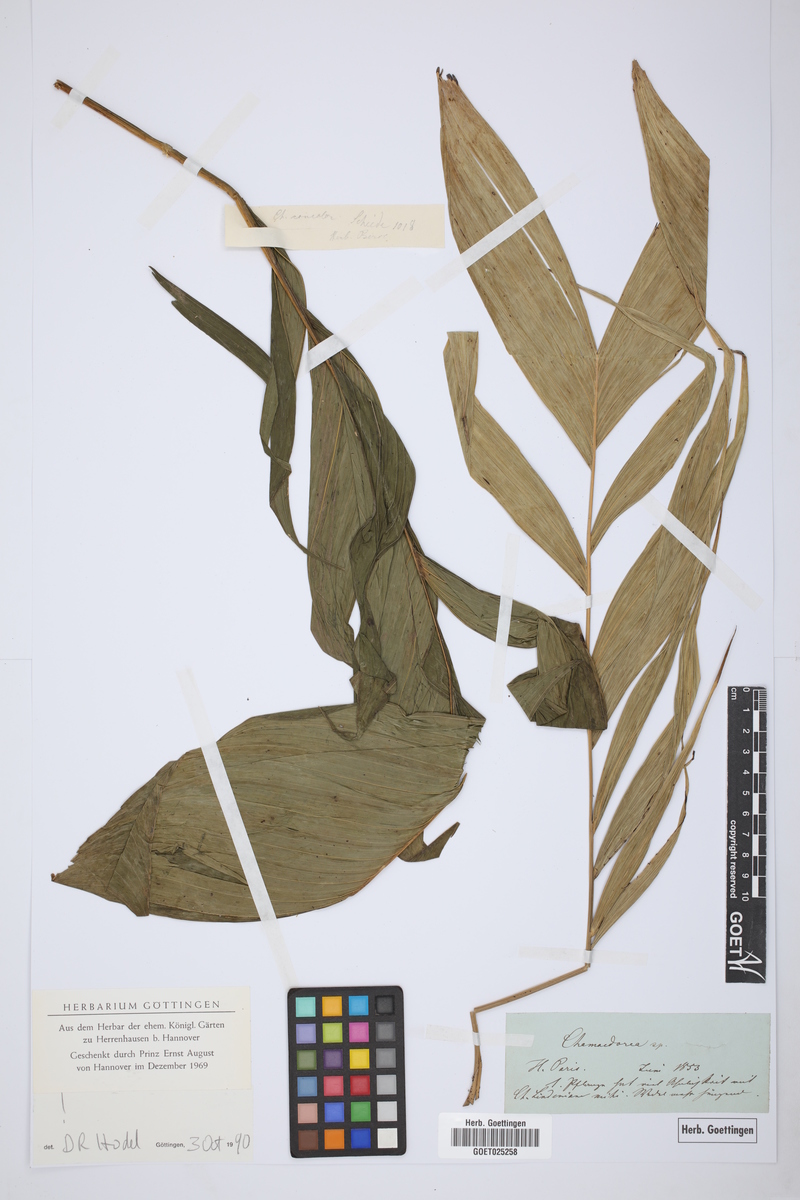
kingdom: Plantae
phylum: Tracheophyta
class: Liliopsida
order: Arecales
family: Arecaceae
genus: Chamaedorea
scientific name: Chamaedorea
